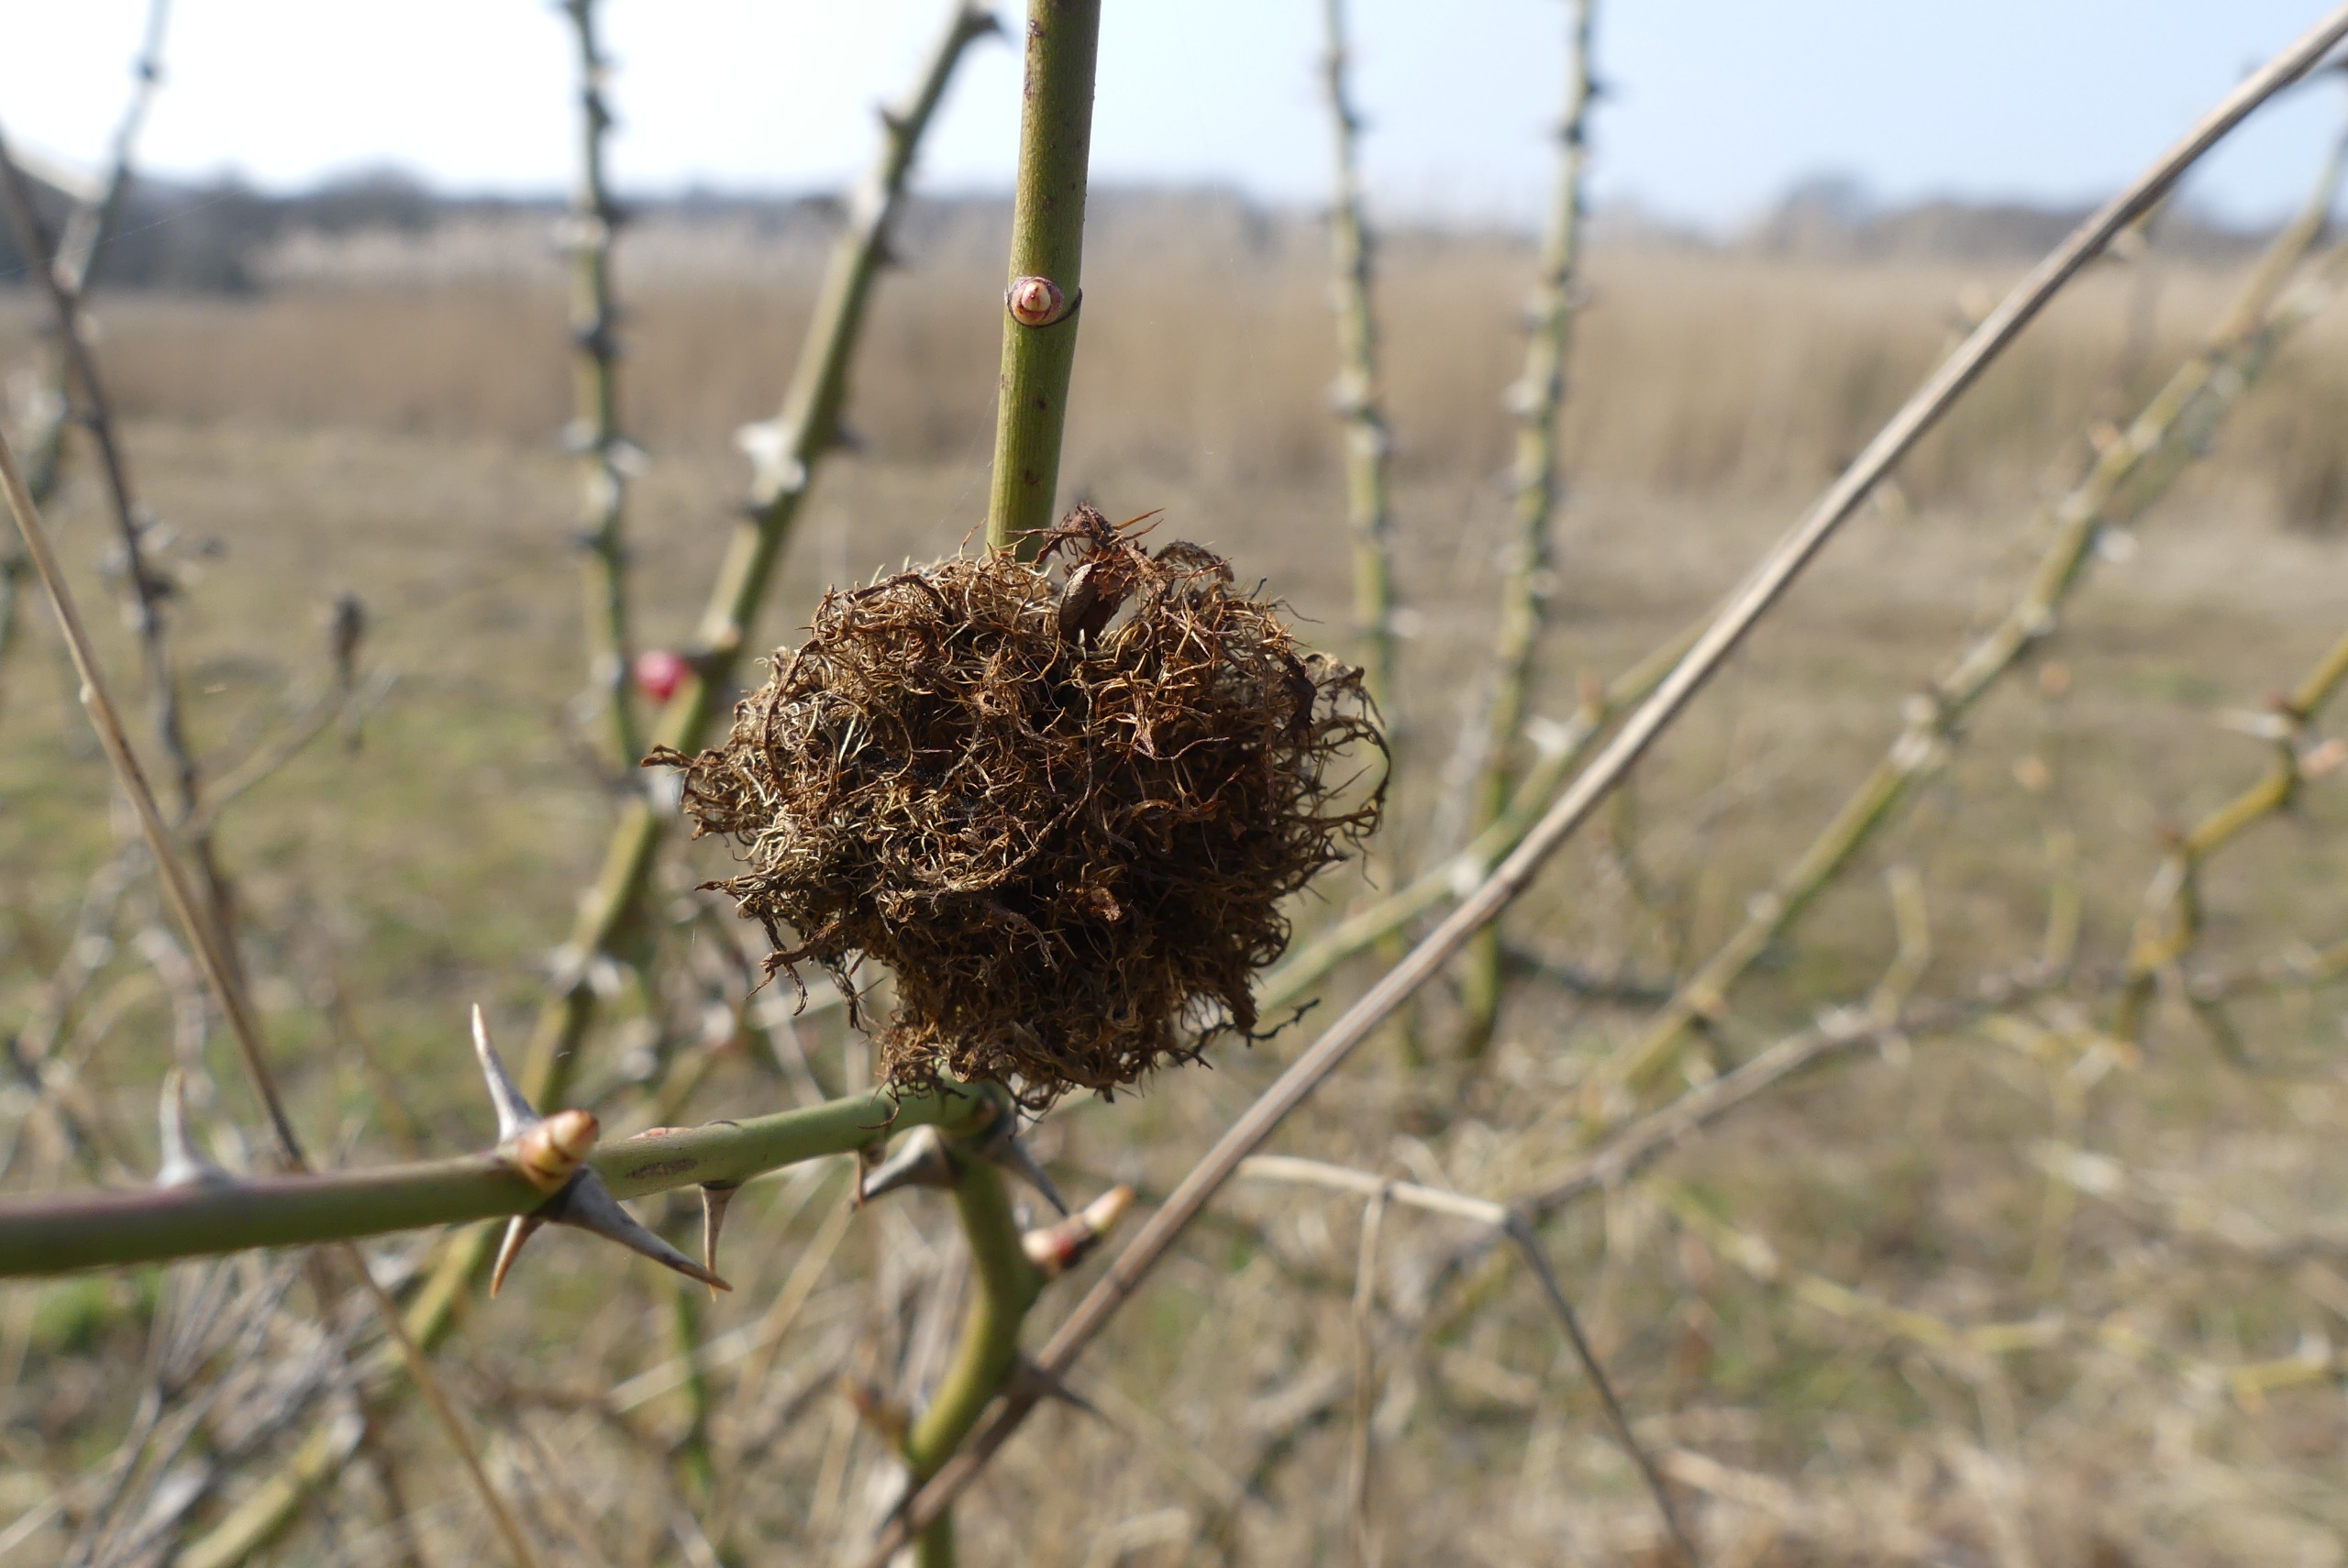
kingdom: Animalia
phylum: Arthropoda
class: Insecta
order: Hymenoptera
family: Cynipidae
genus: Diplolepis
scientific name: Diplolepis rosae
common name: Bedeguargalhveps
